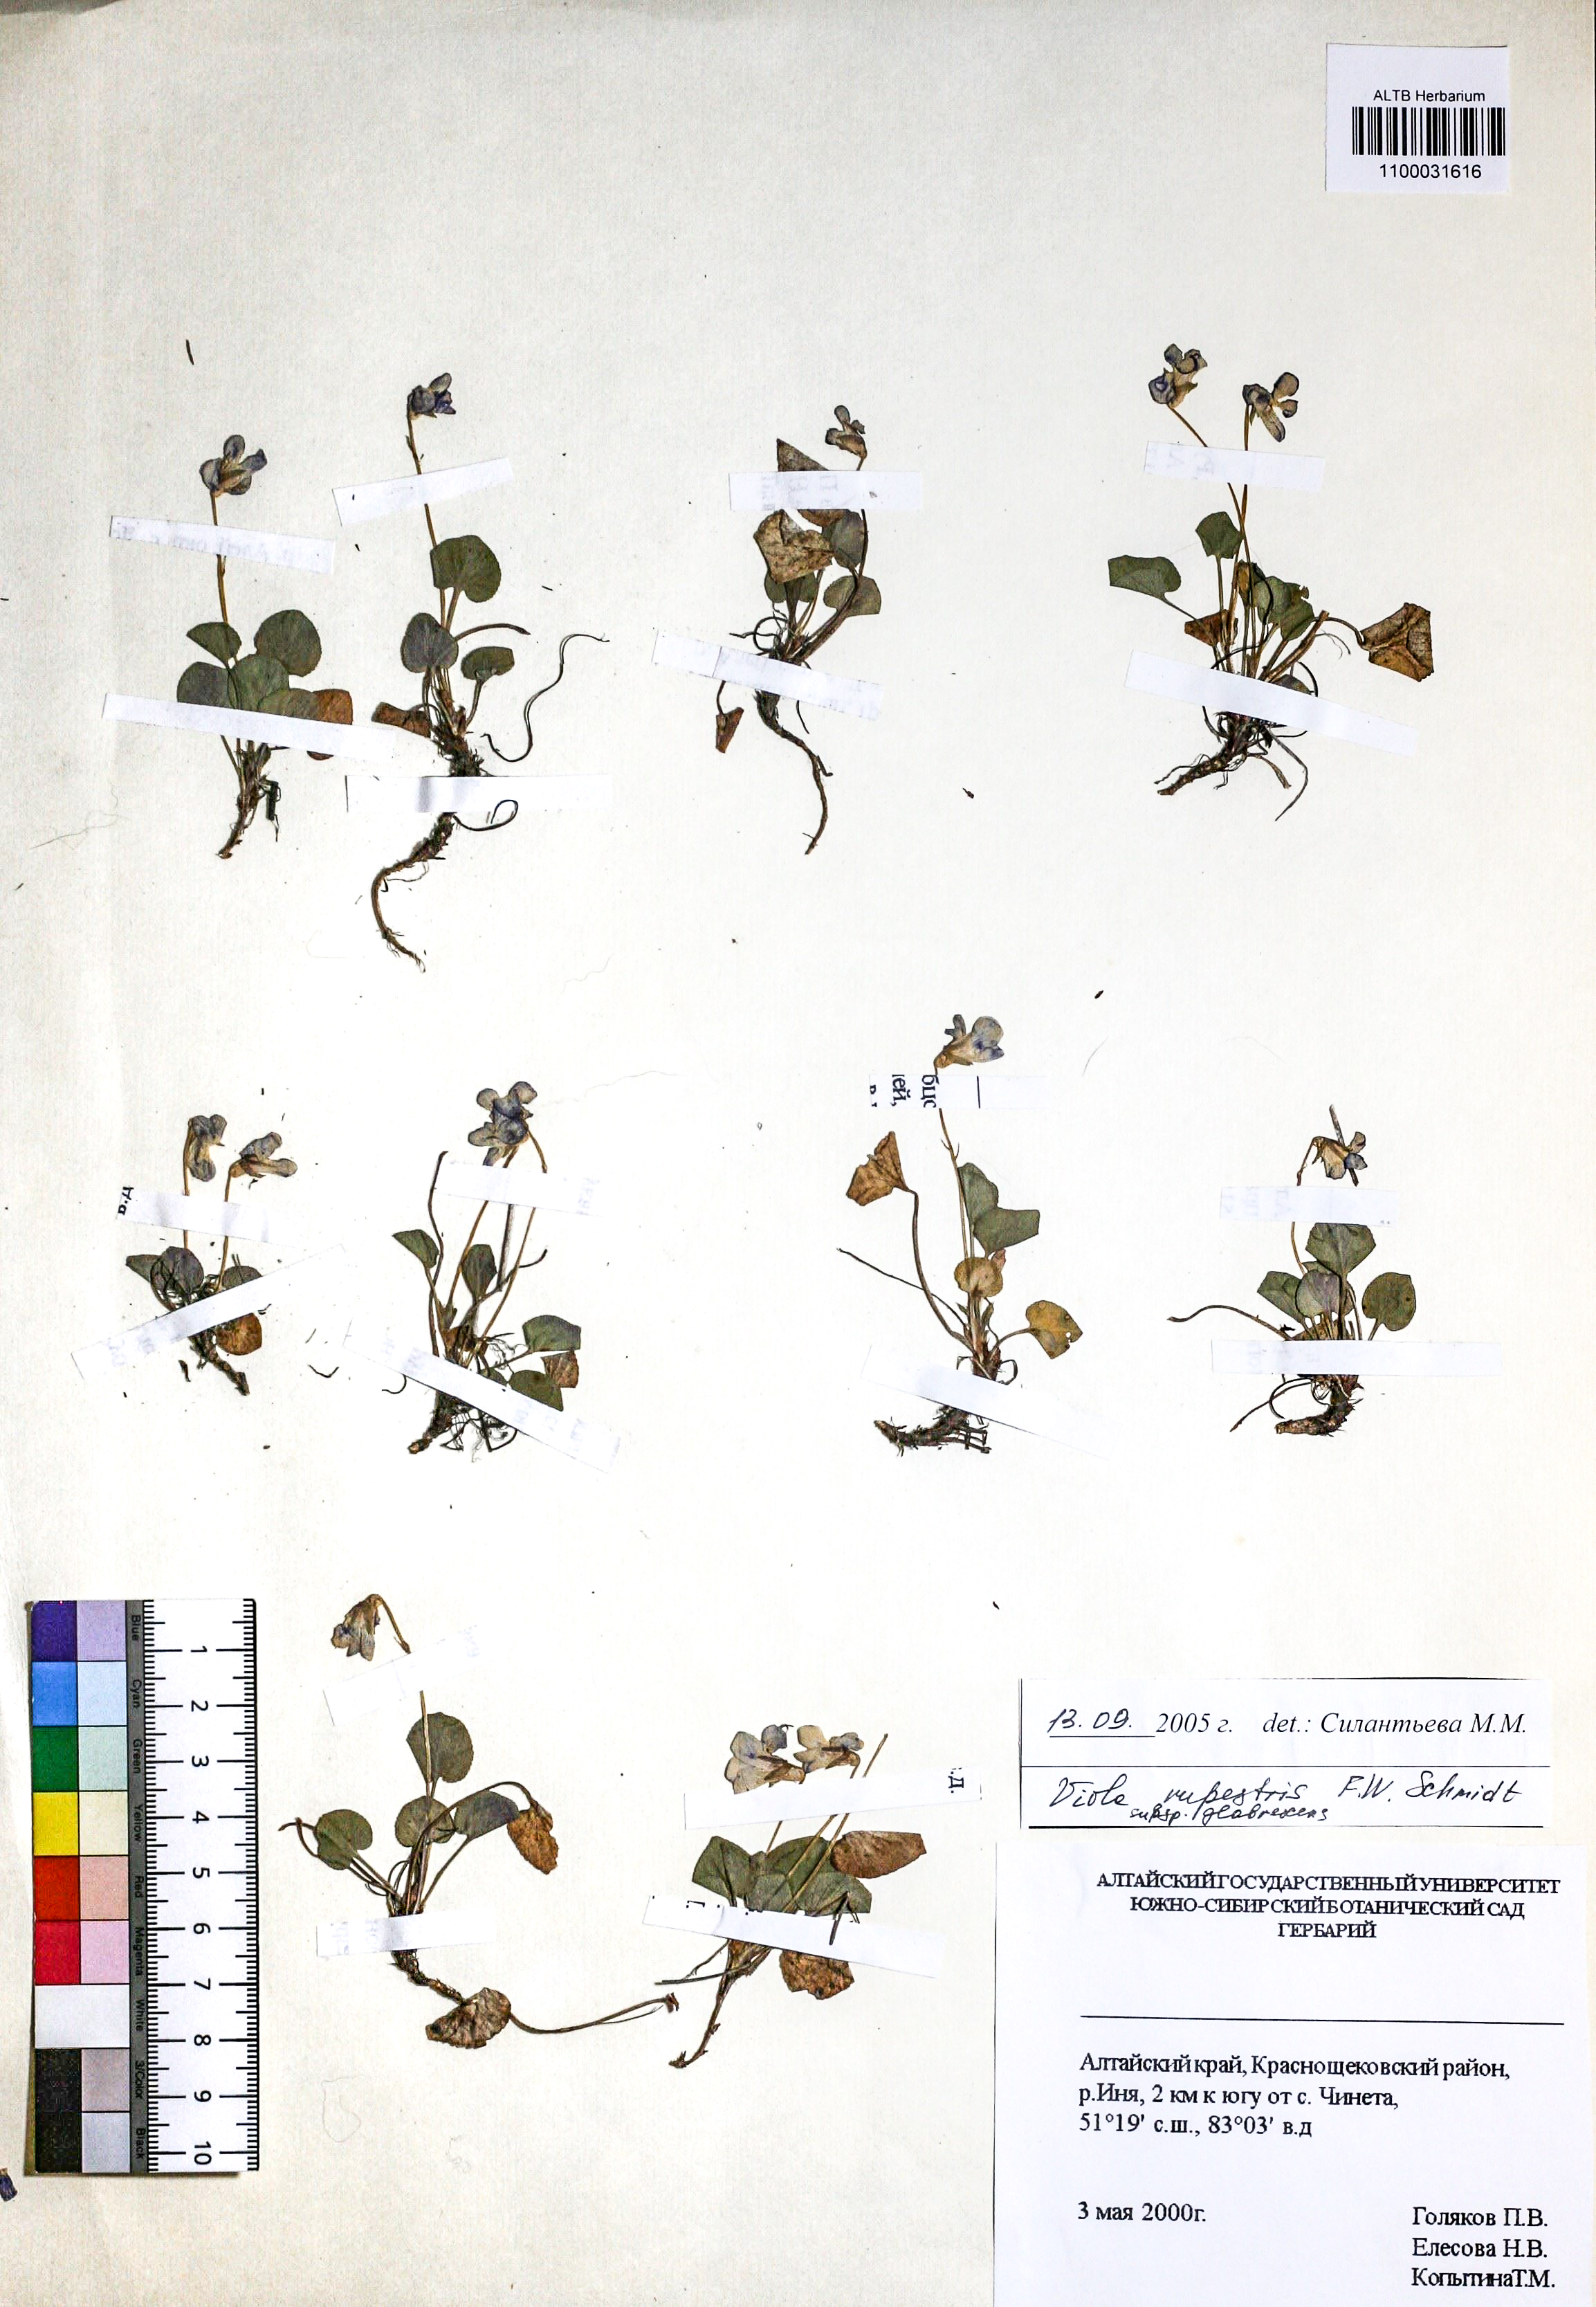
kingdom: Plantae
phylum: Tracheophyta
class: Magnoliopsida
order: Malpighiales
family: Violaceae
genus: Viola
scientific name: Viola rupestris
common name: Teesdale violet
